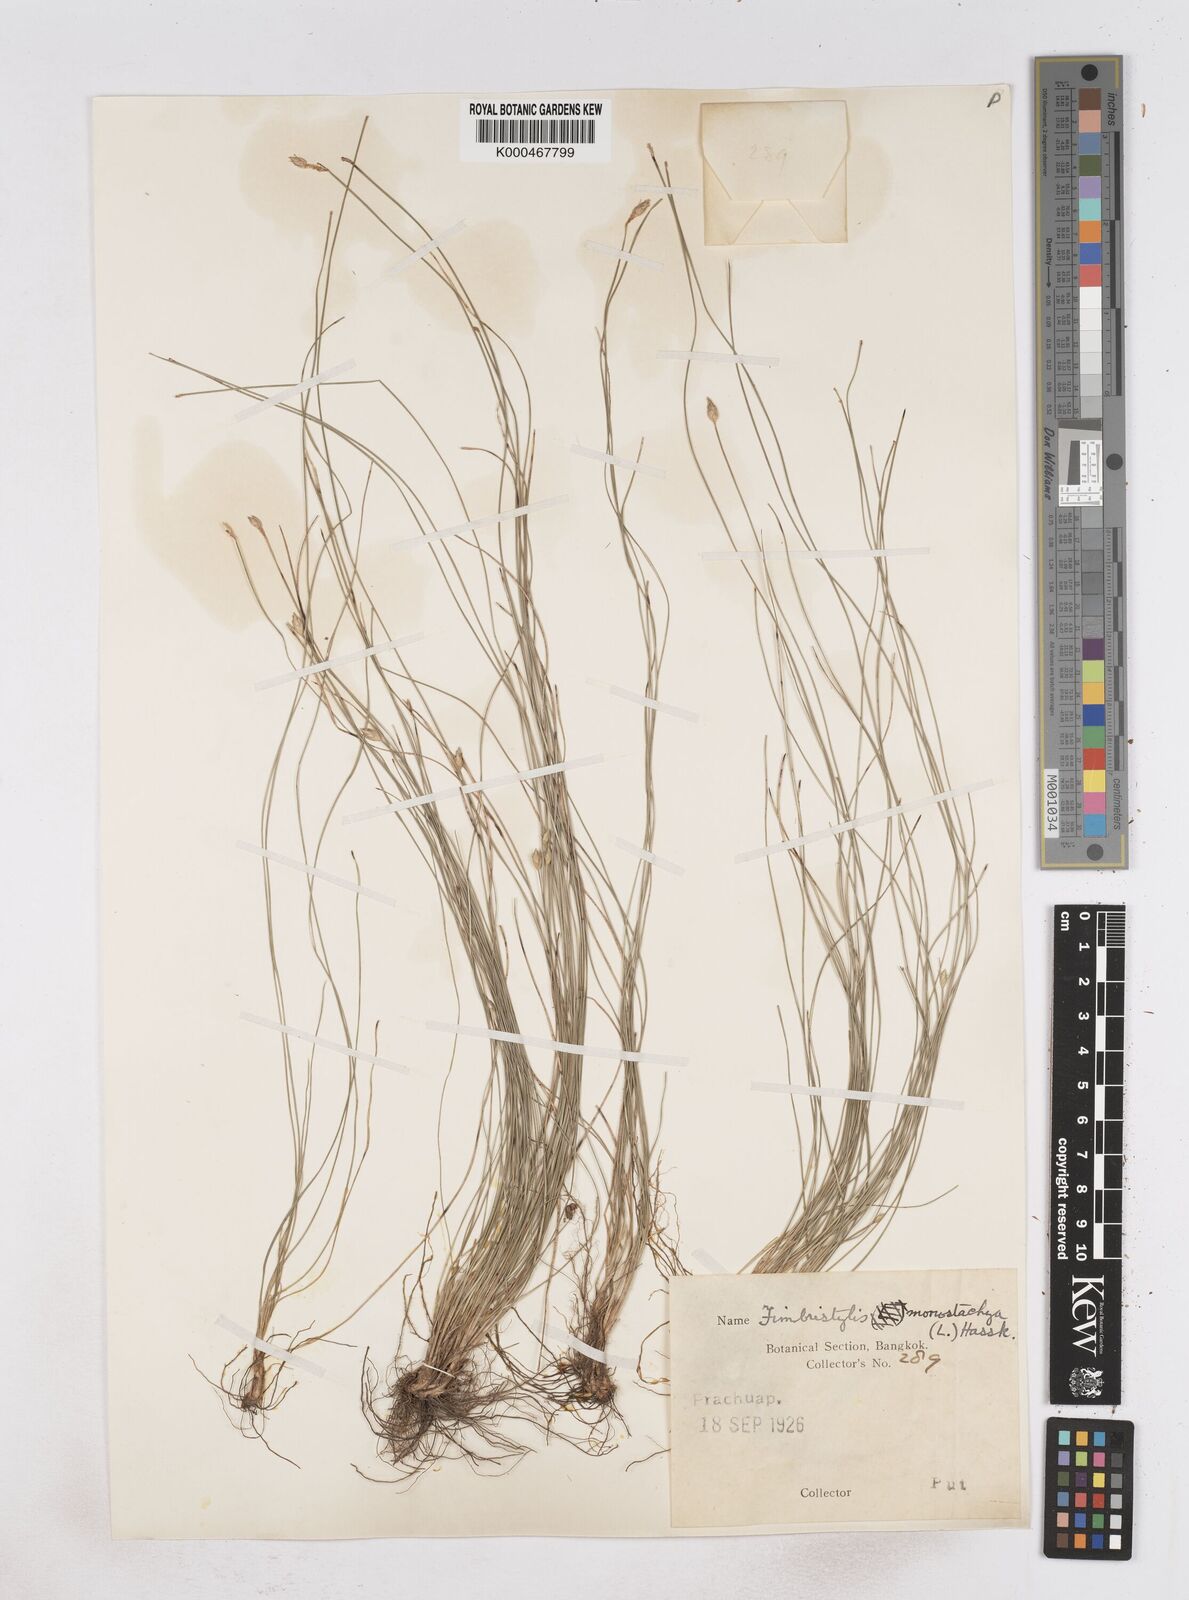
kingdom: Plantae
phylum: Tracheophyta
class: Liliopsida
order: Poales
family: Cyperaceae
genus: Abildgaardia
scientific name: Abildgaardia ovata
